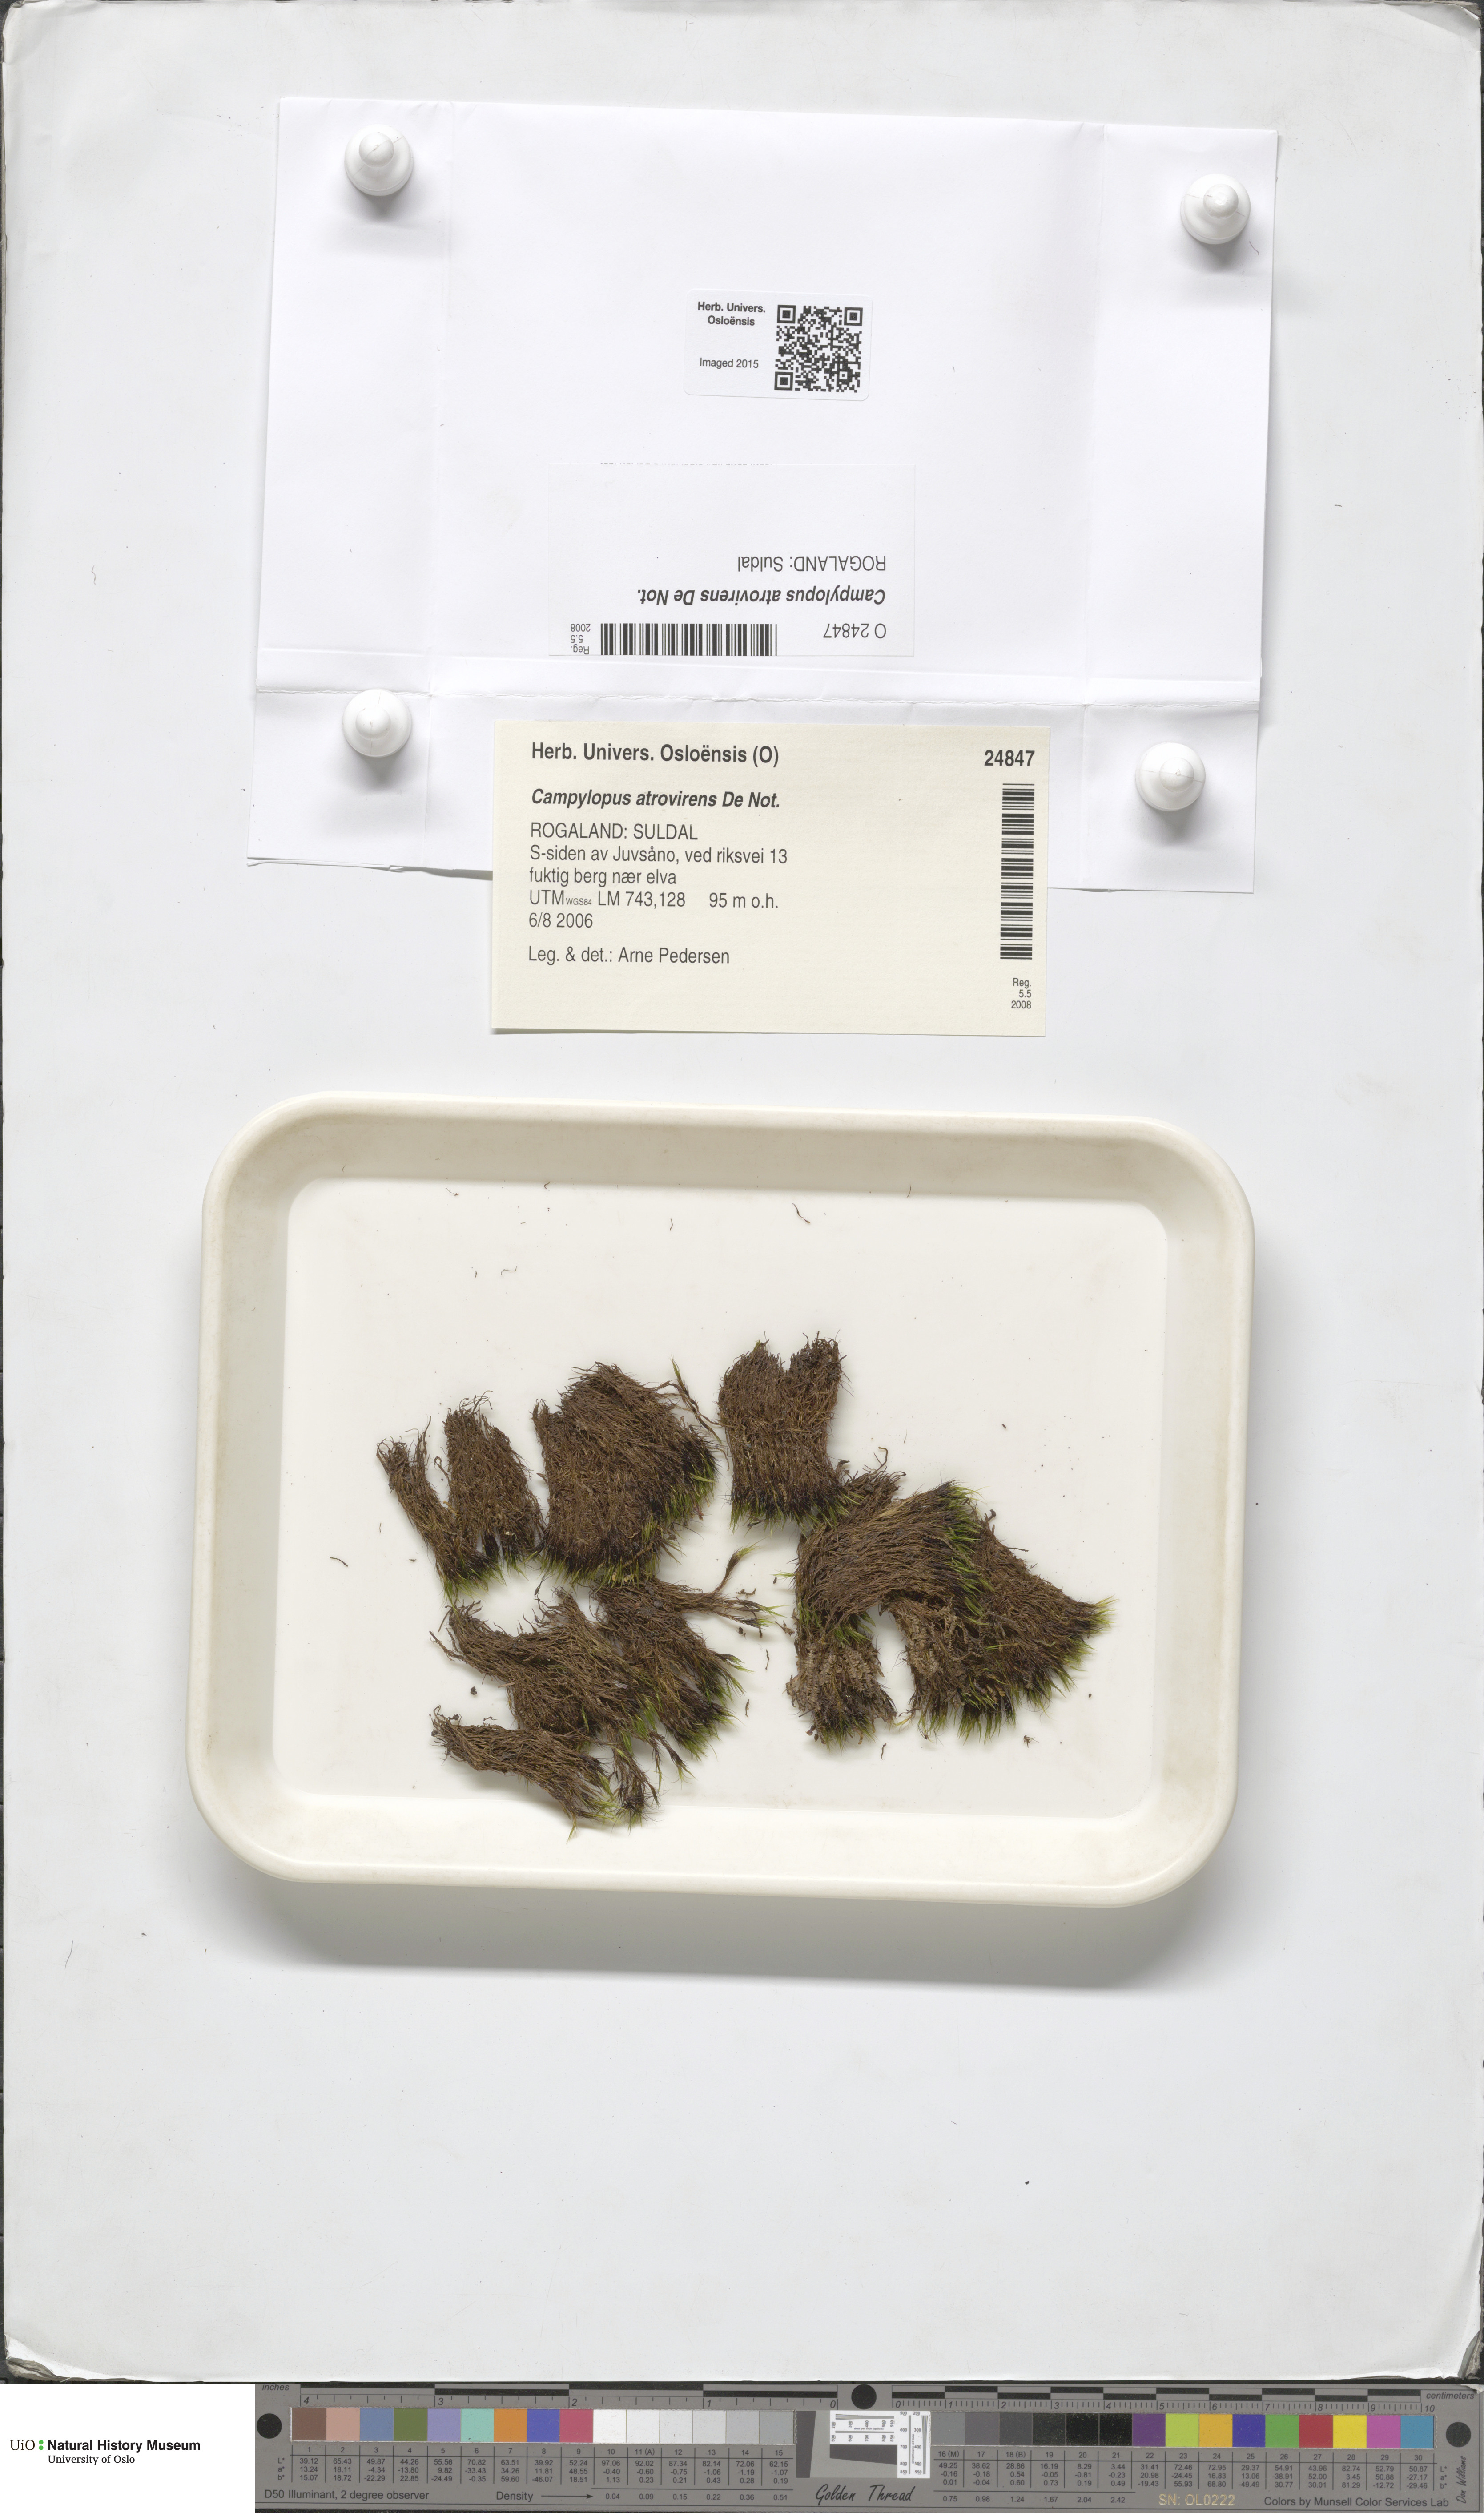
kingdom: Plantae
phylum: Bryophyta
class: Bryopsida
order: Dicranales
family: Leucobryaceae
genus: Campylopus
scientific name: Campylopus atrovirens
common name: Bristly swan-neck moss
